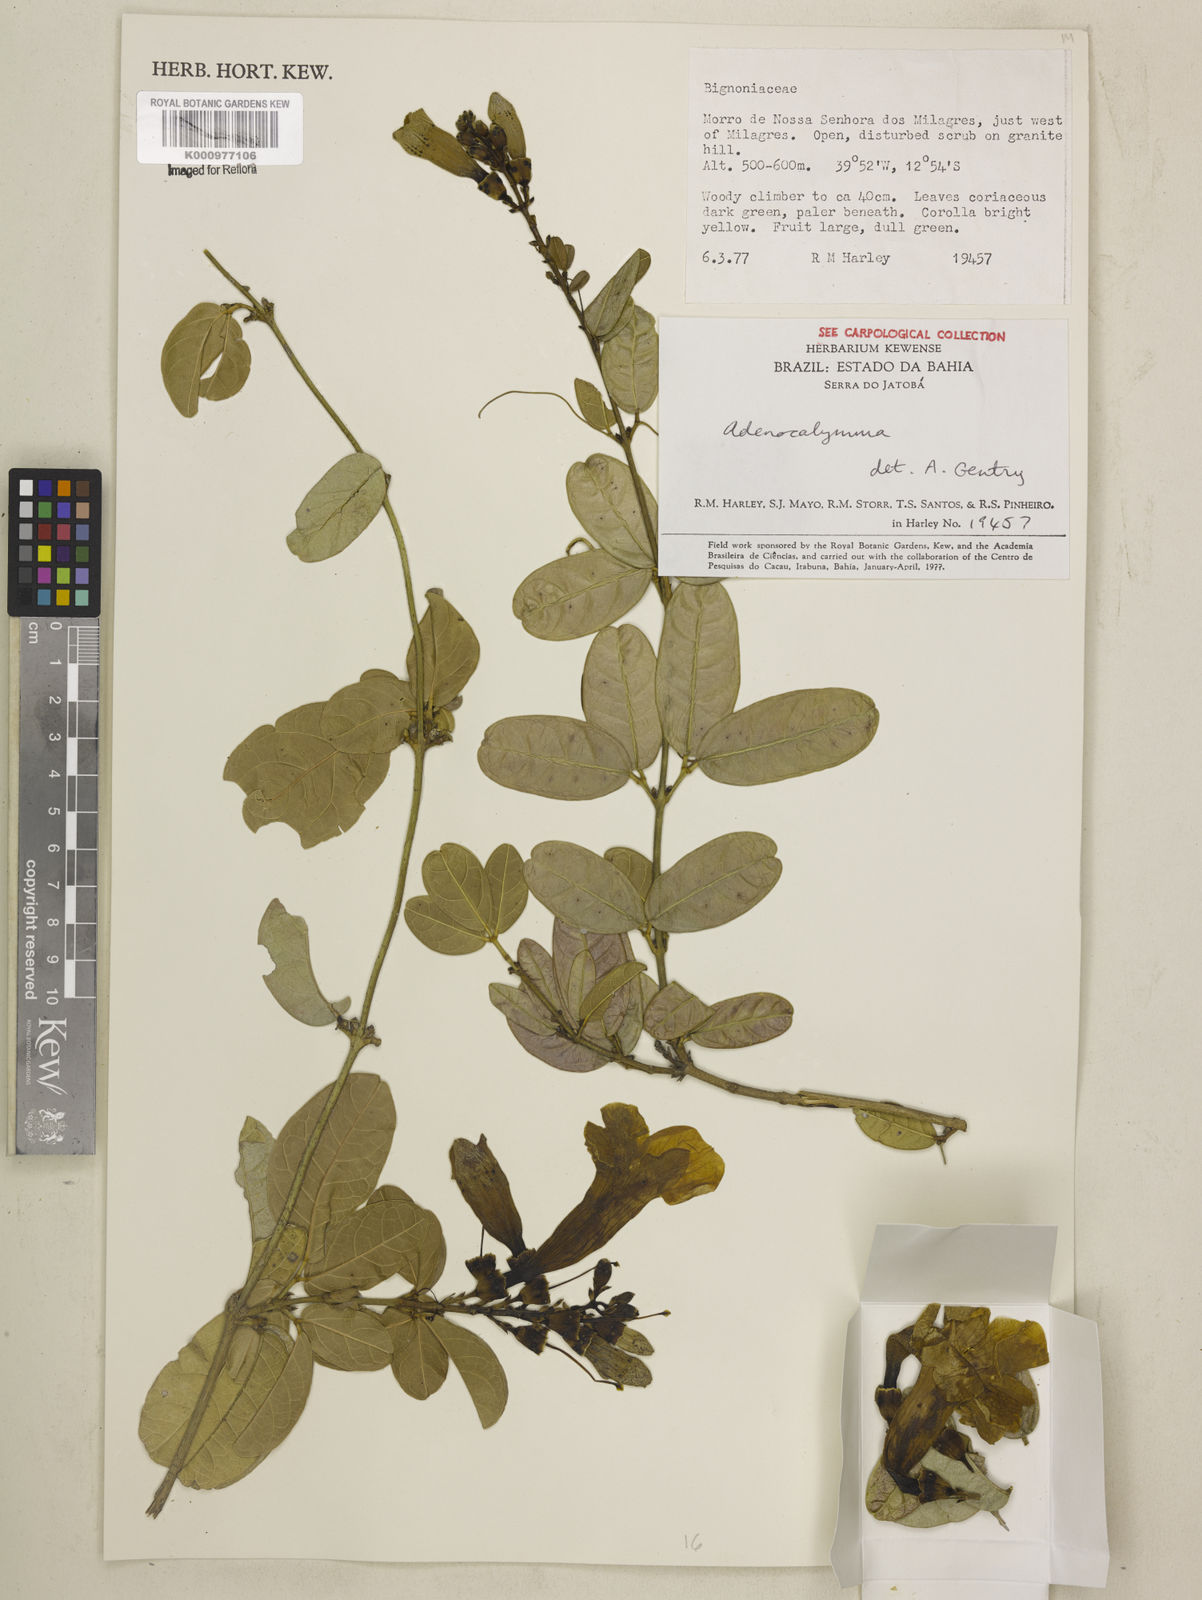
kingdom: Plantae
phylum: Tracheophyta
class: Magnoliopsida
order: Lamiales
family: Bignoniaceae
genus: Adenocalymma
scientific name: Adenocalymma
